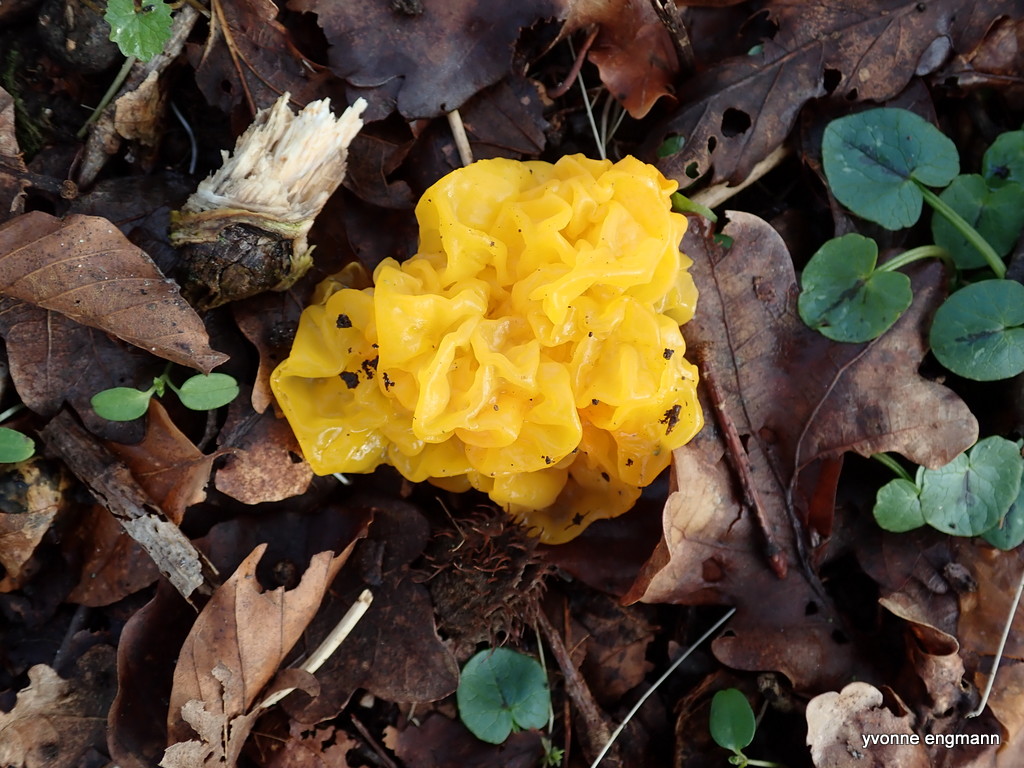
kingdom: Fungi
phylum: Basidiomycota
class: Tremellomycetes
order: Tremellales
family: Tremellaceae
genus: Tremella
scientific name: Tremella mesenterica
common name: gul bævresvamp
